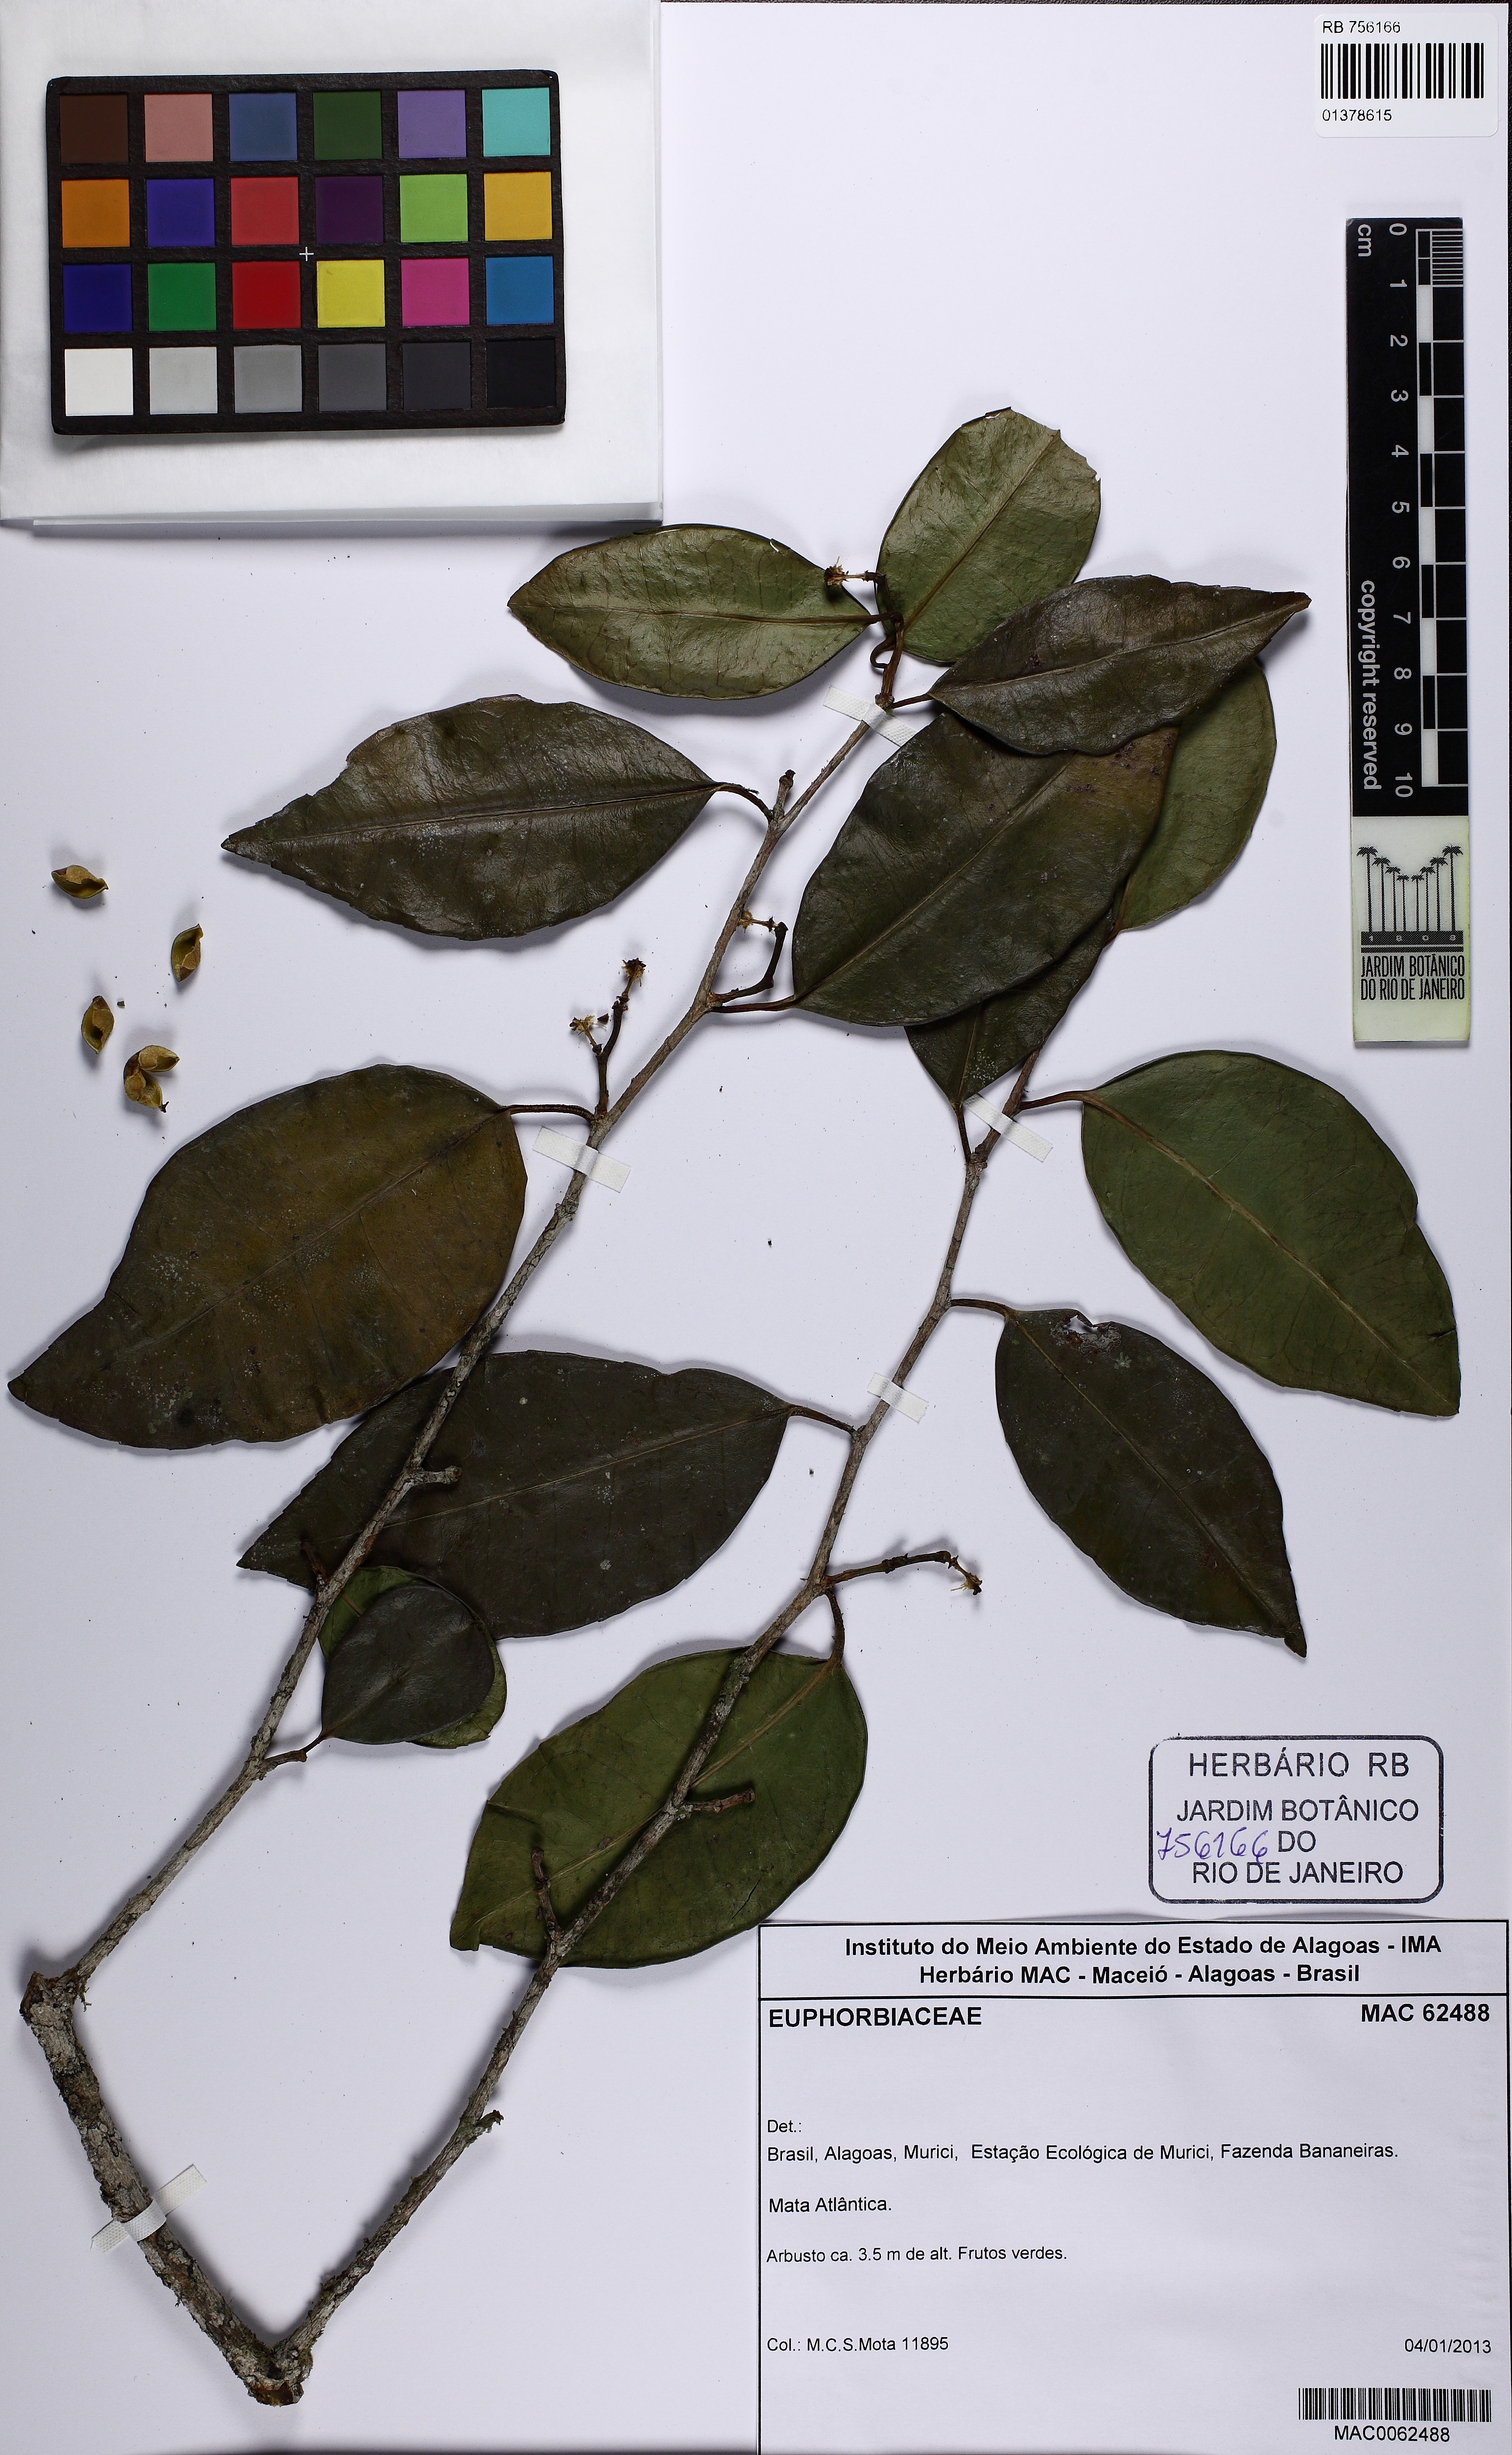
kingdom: Plantae
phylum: Tracheophyta
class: Magnoliopsida
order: Malpighiales
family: Euphorbiaceae
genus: Sebastiania
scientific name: Sebastiania
